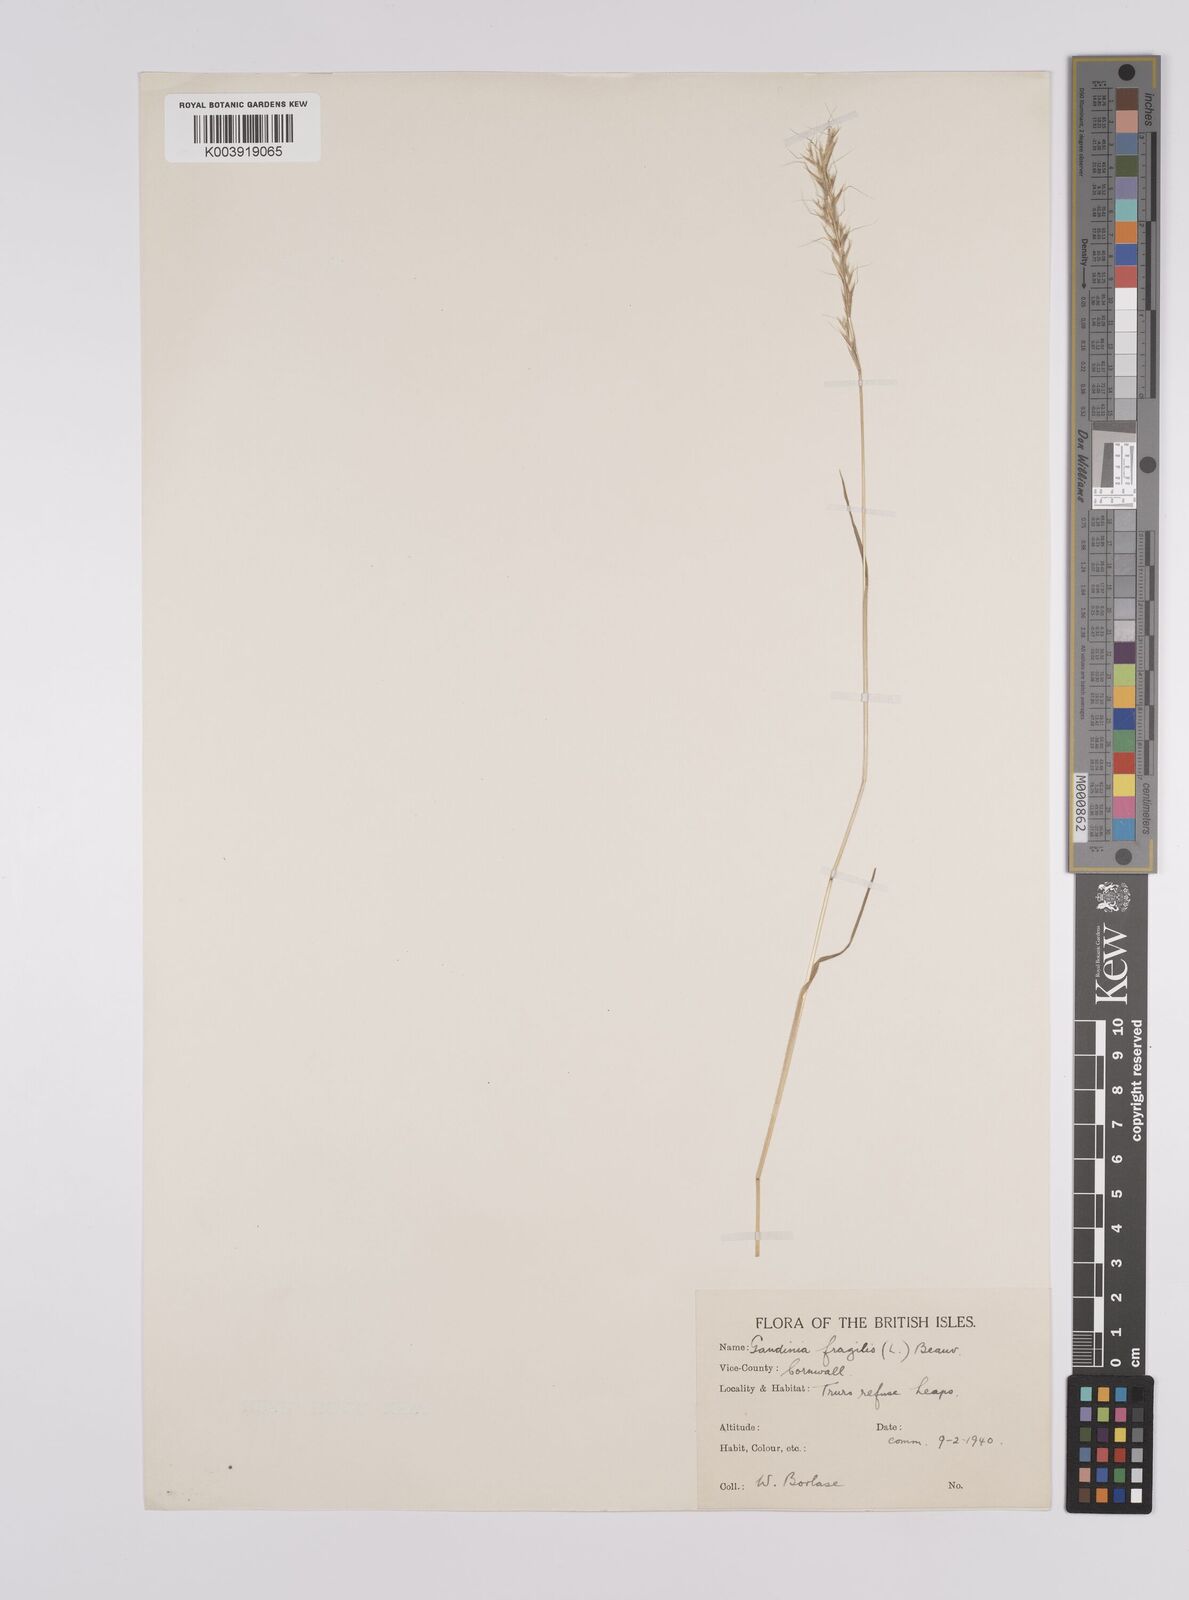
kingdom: Plantae
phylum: Tracheophyta
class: Liliopsida
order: Poales
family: Poaceae
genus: Gaudinia
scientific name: Gaudinia fragilis
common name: French oat-grass
